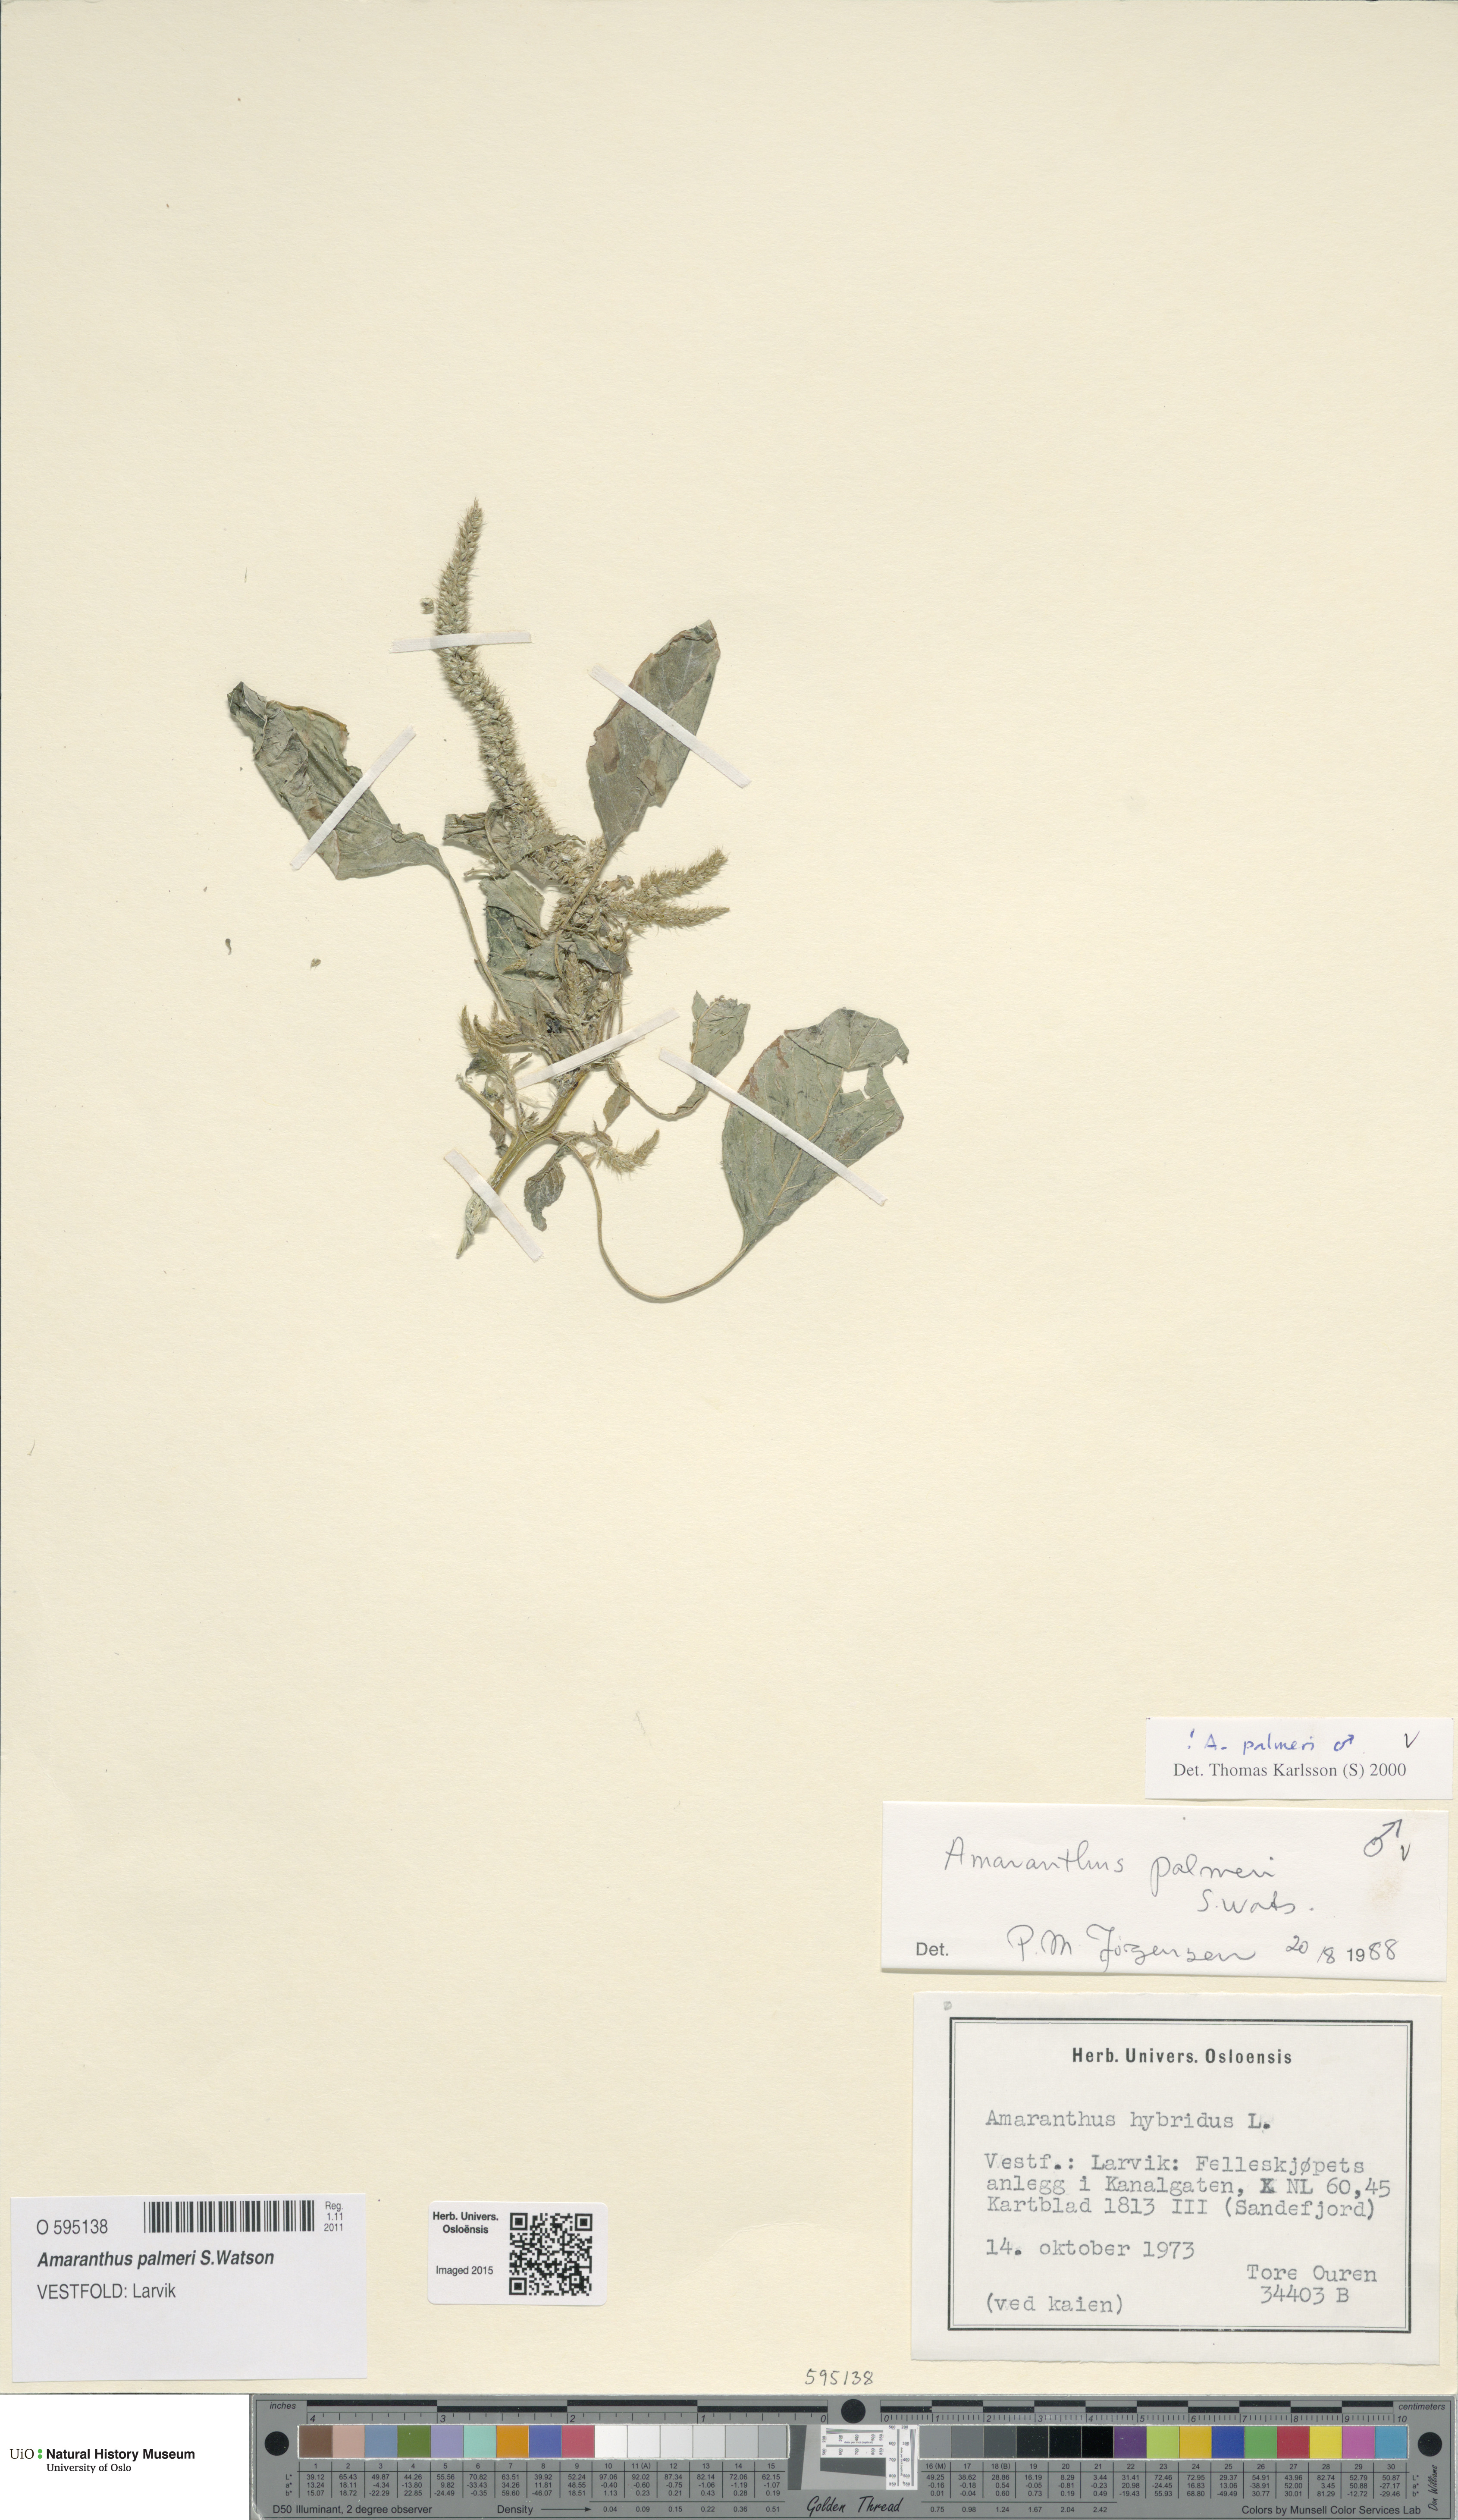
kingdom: Plantae
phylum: Tracheophyta
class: Magnoliopsida
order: Caryophyllales
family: Amaranthaceae
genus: Amaranthus
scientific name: Amaranthus palmeri
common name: Dioecious amaranth
